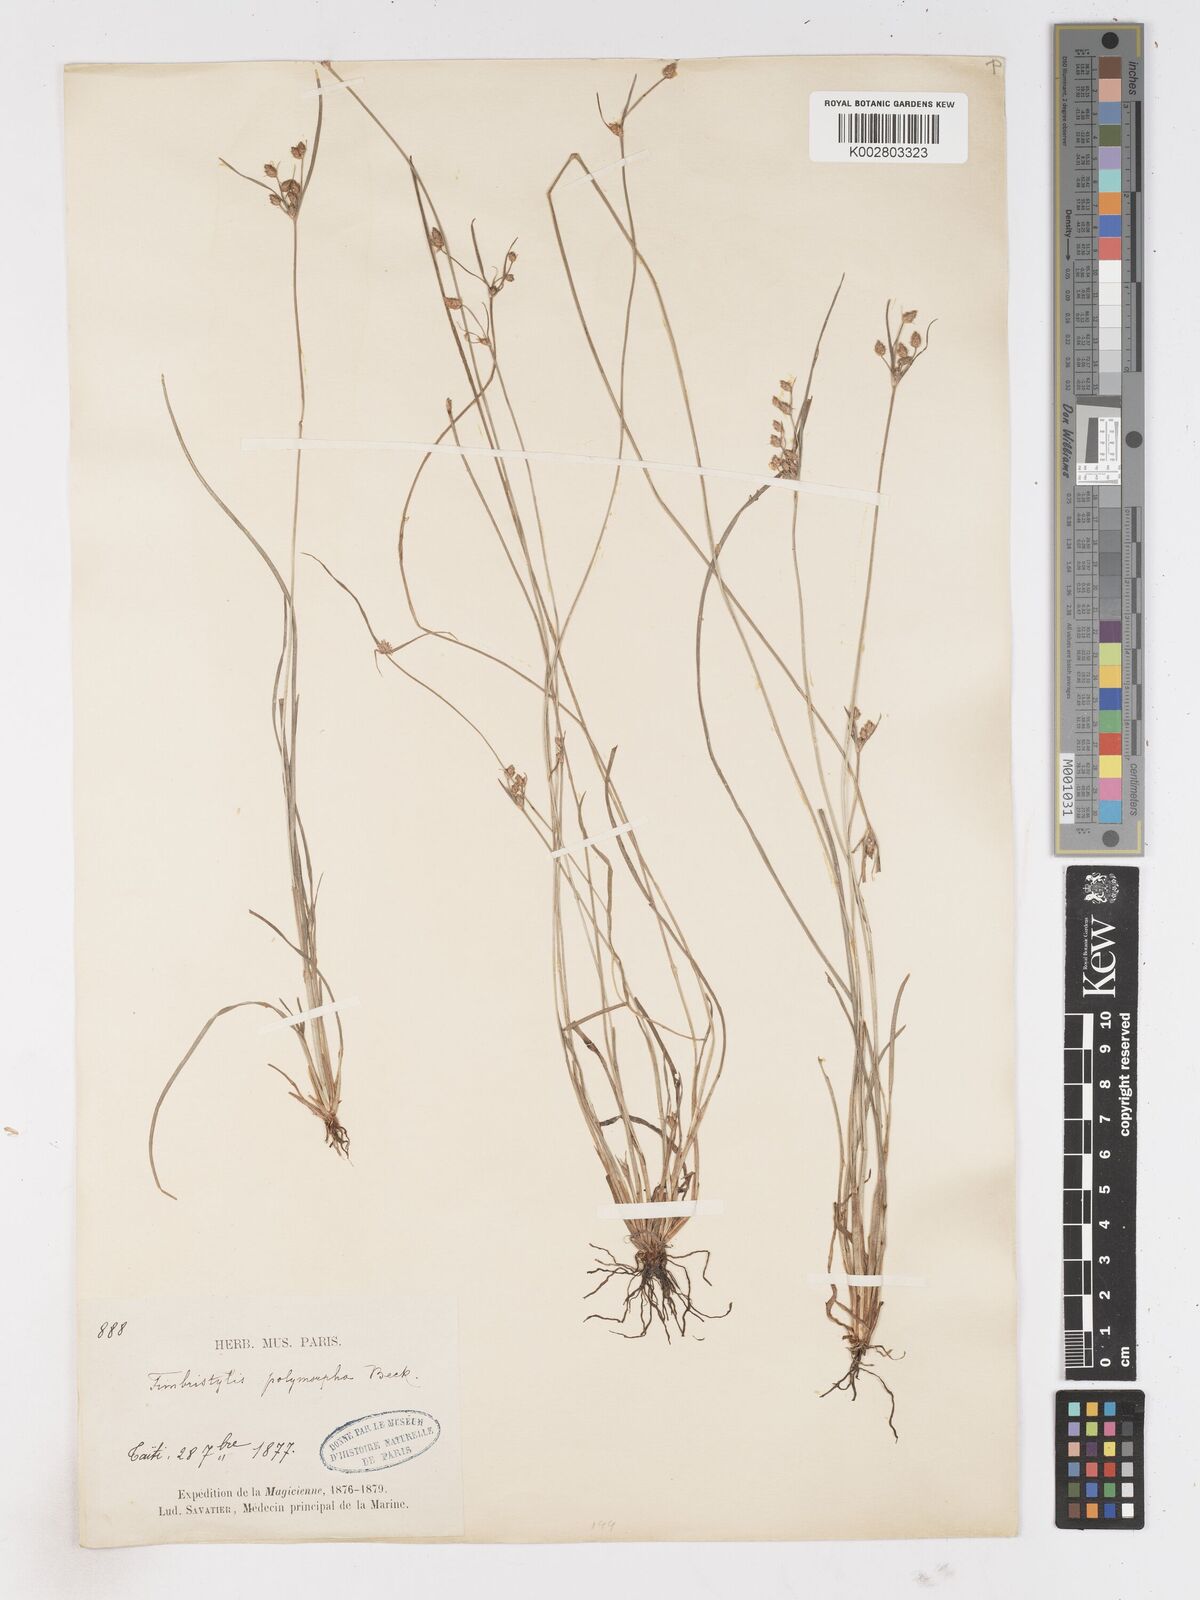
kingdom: Plantae
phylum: Tracheophyta
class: Liliopsida
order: Poales
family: Cyperaceae
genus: Fimbristylis
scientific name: Fimbristylis dichotoma
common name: Forked fimbry
